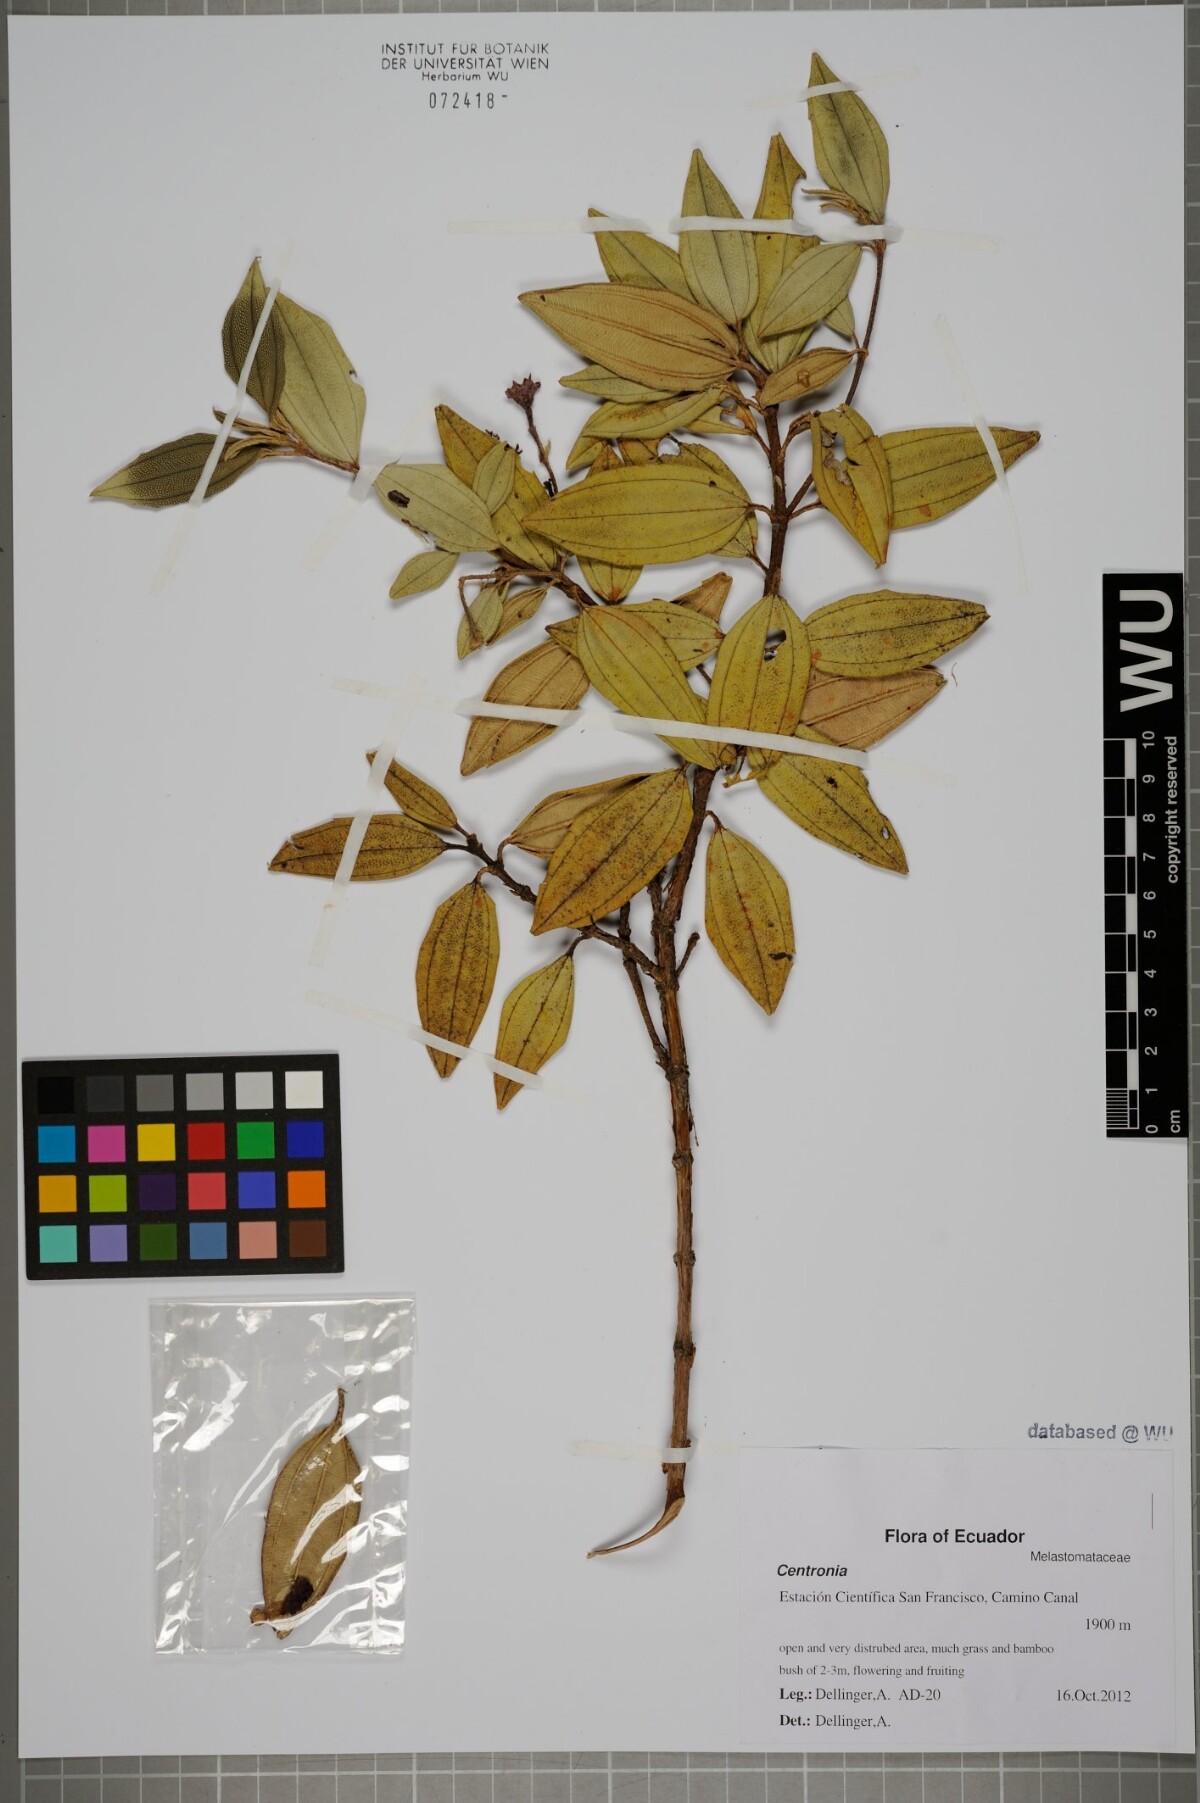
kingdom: Plantae
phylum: Tracheophyta
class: Magnoliopsida
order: Myrtales
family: Melastomataceae
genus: Centronia
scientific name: Centronia
